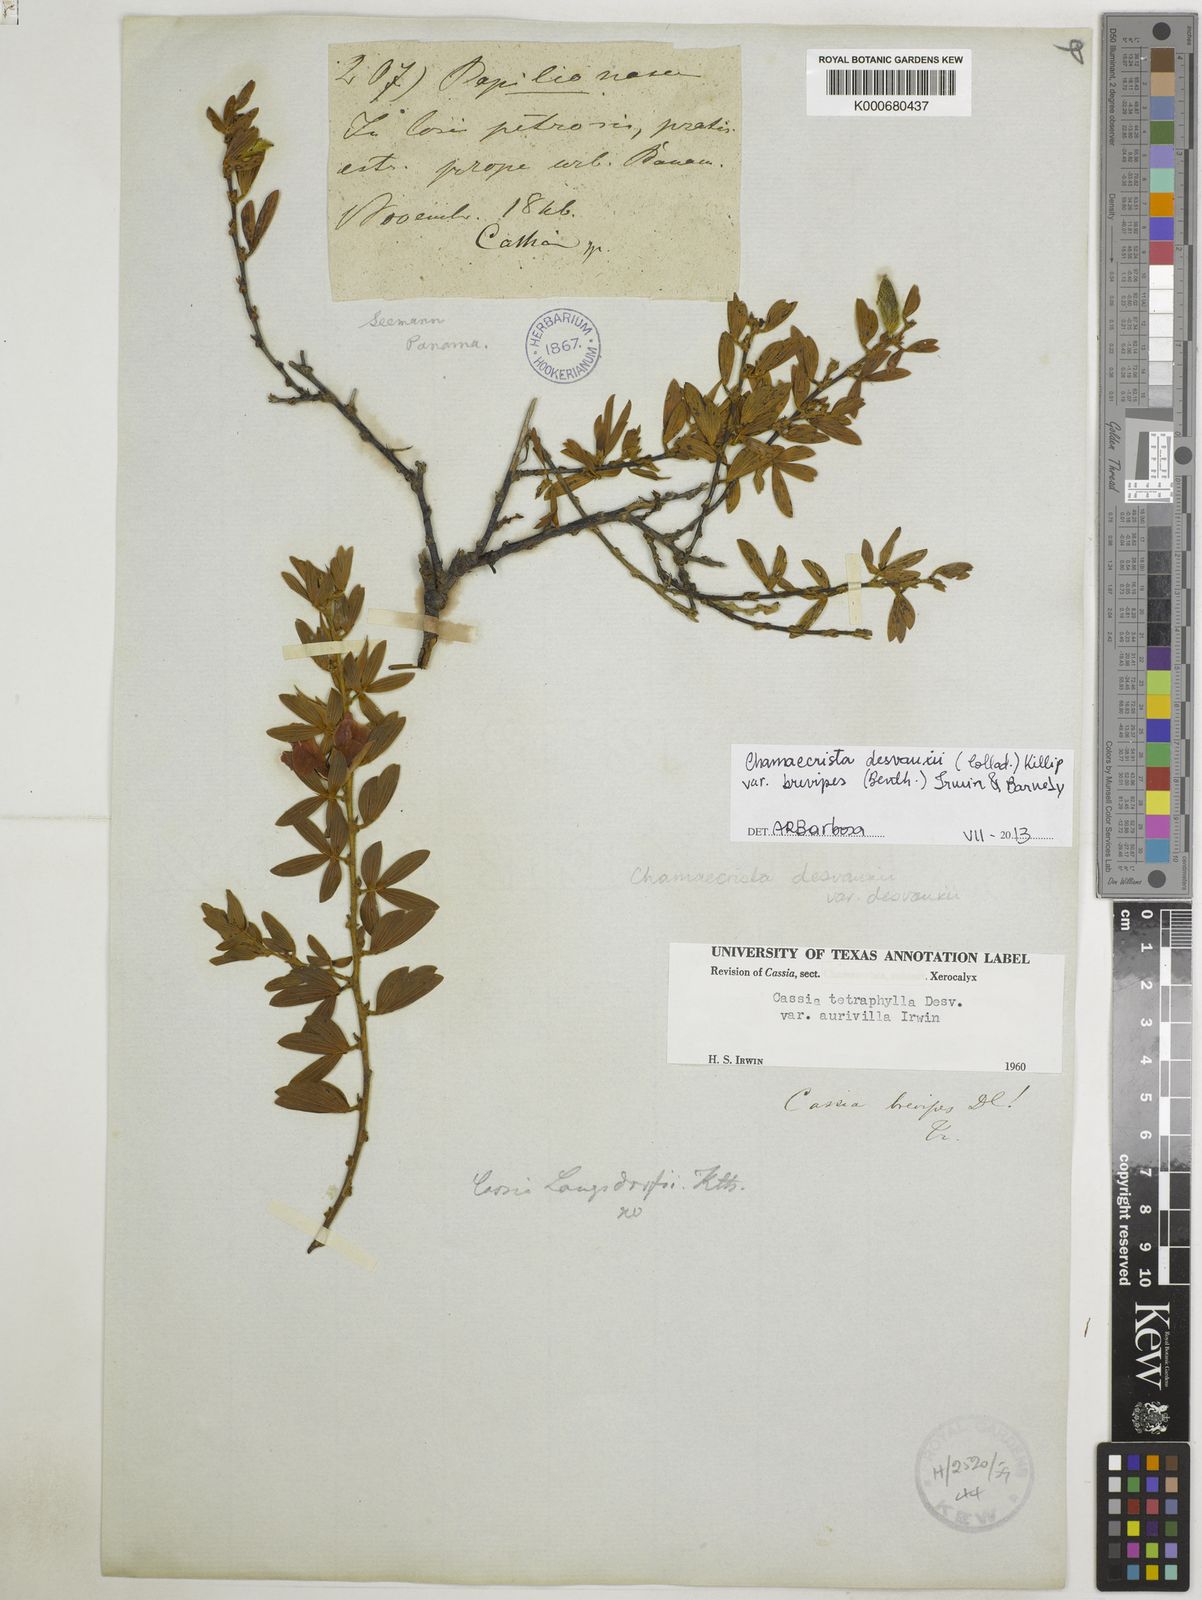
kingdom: Plantae
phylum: Tracheophyta
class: Magnoliopsida
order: Fabales
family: Fabaceae
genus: Chamaecrista
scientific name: Chamaecrista
